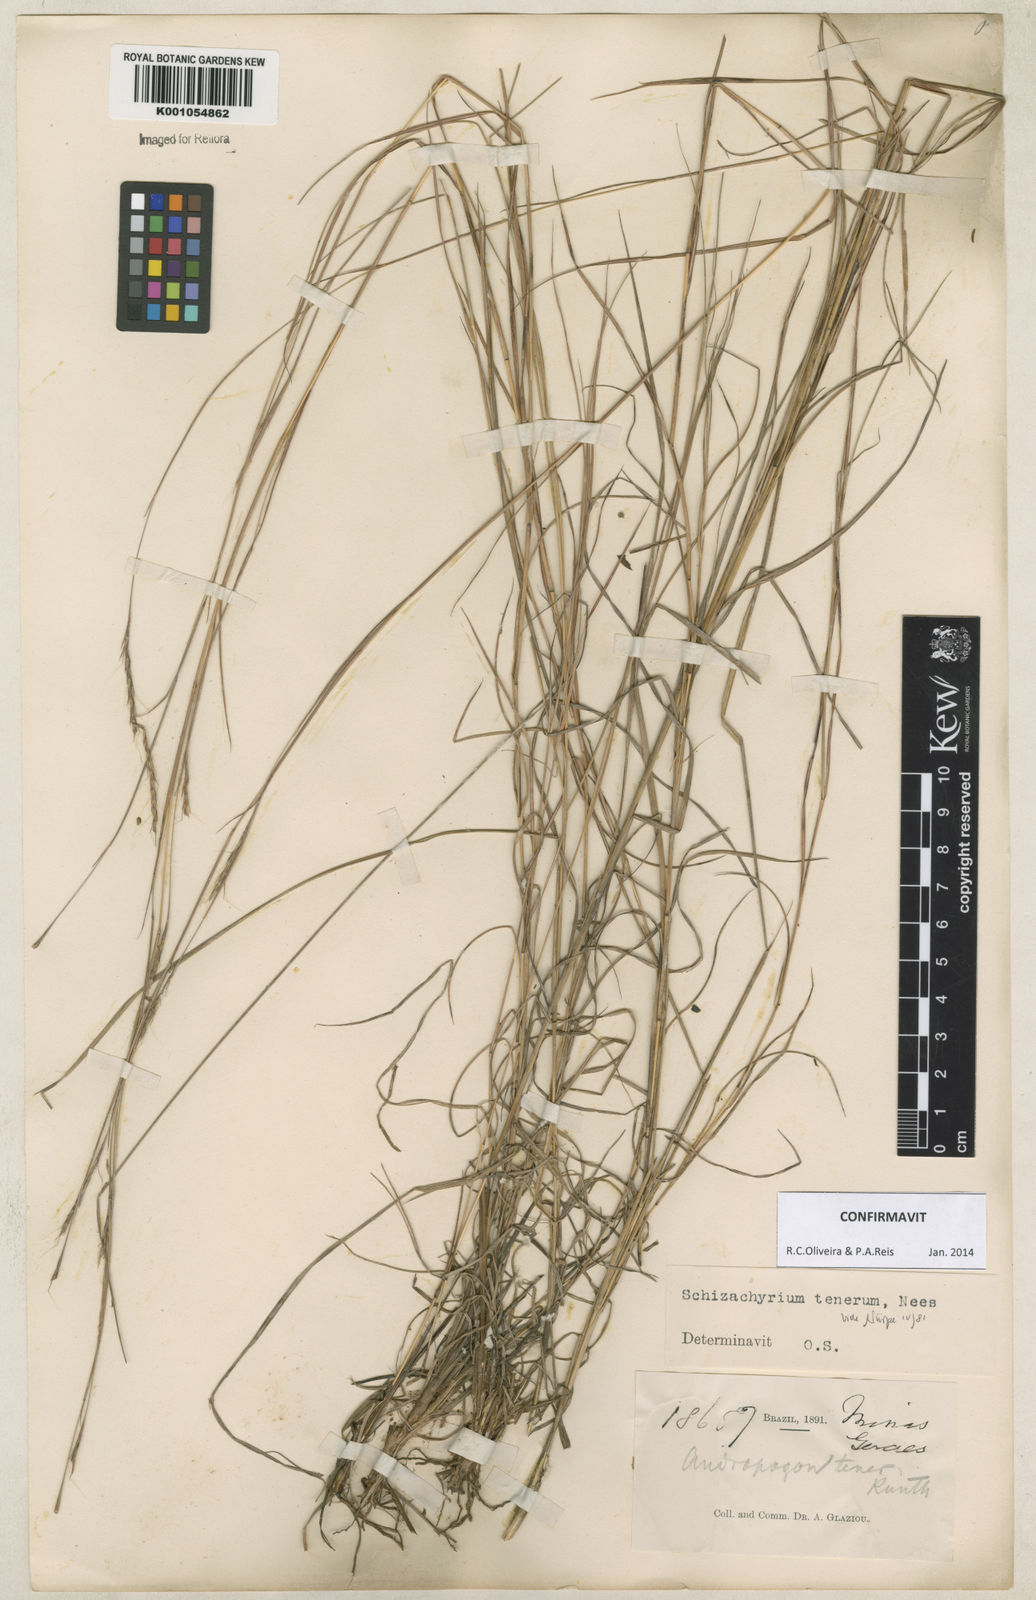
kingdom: Plantae
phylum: Tracheophyta
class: Liliopsida
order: Poales
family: Poaceae
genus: Andropogon
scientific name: Andropogon tener
